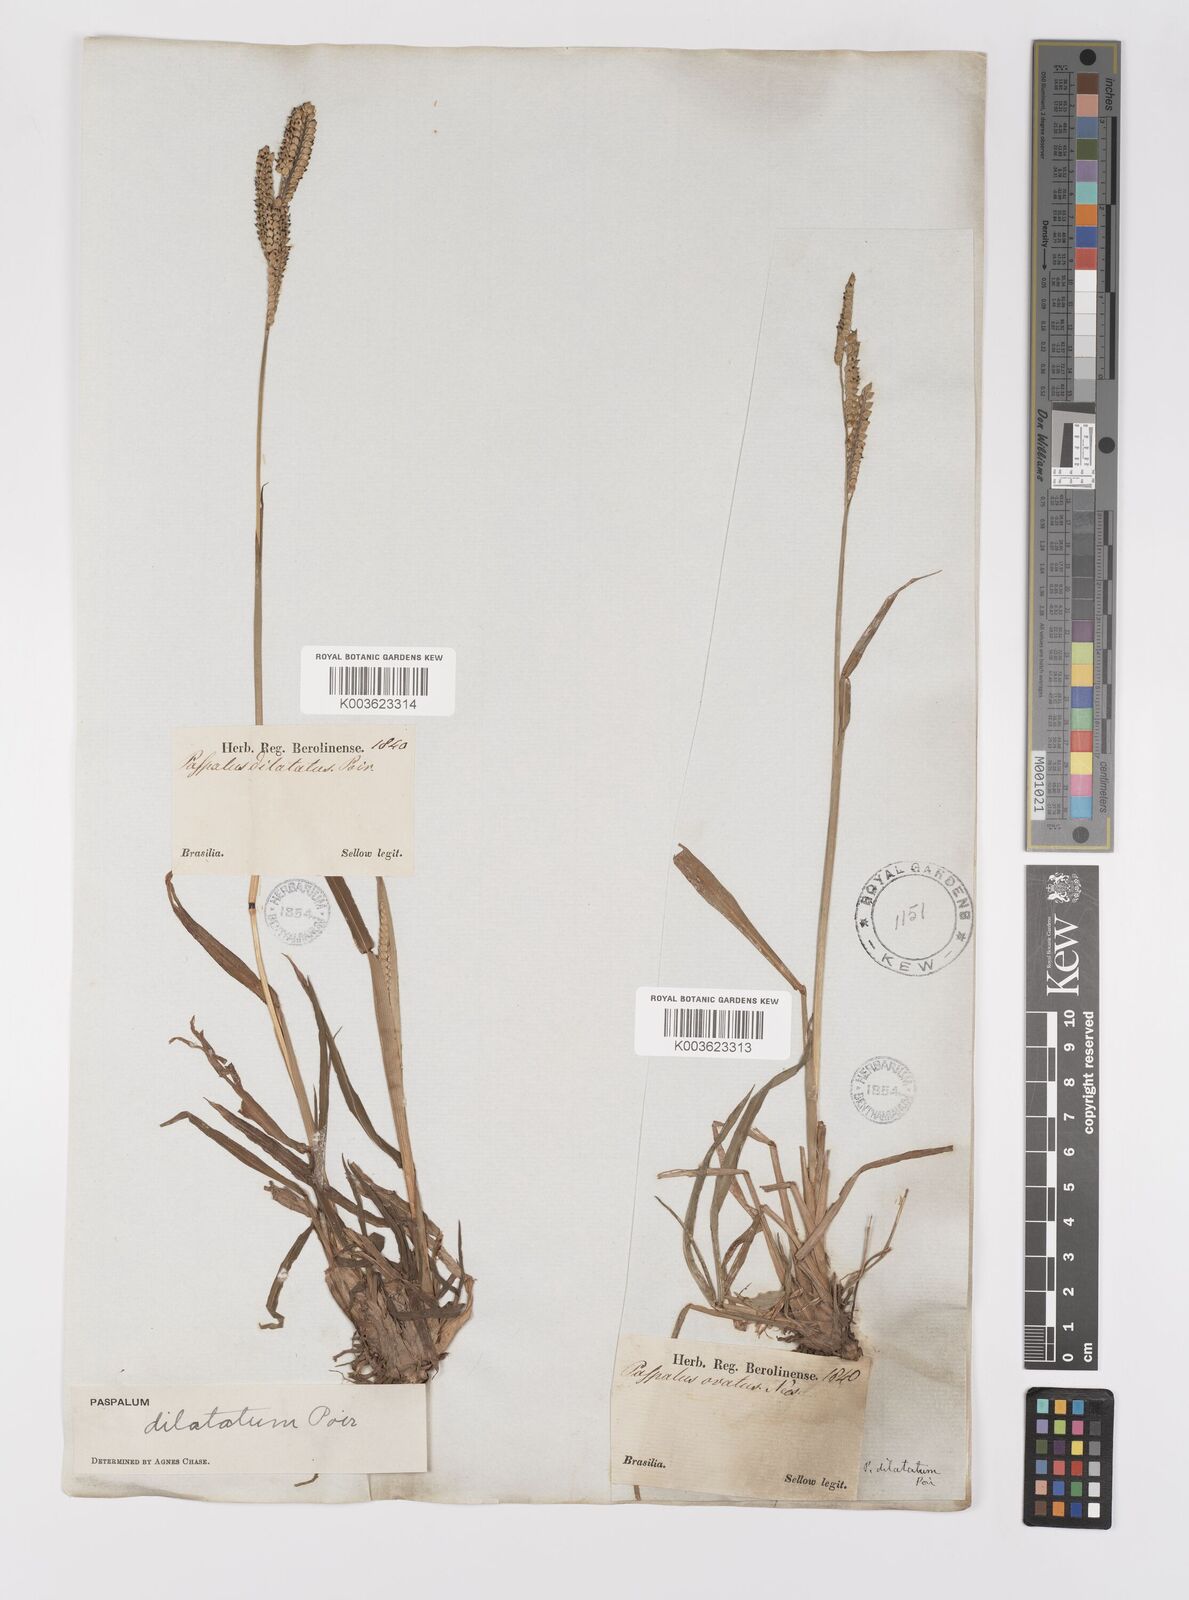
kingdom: Plantae
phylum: Tracheophyta
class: Liliopsida
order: Poales
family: Poaceae
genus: Paspalum
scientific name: Paspalum dilatatum
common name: Dallisgrass
